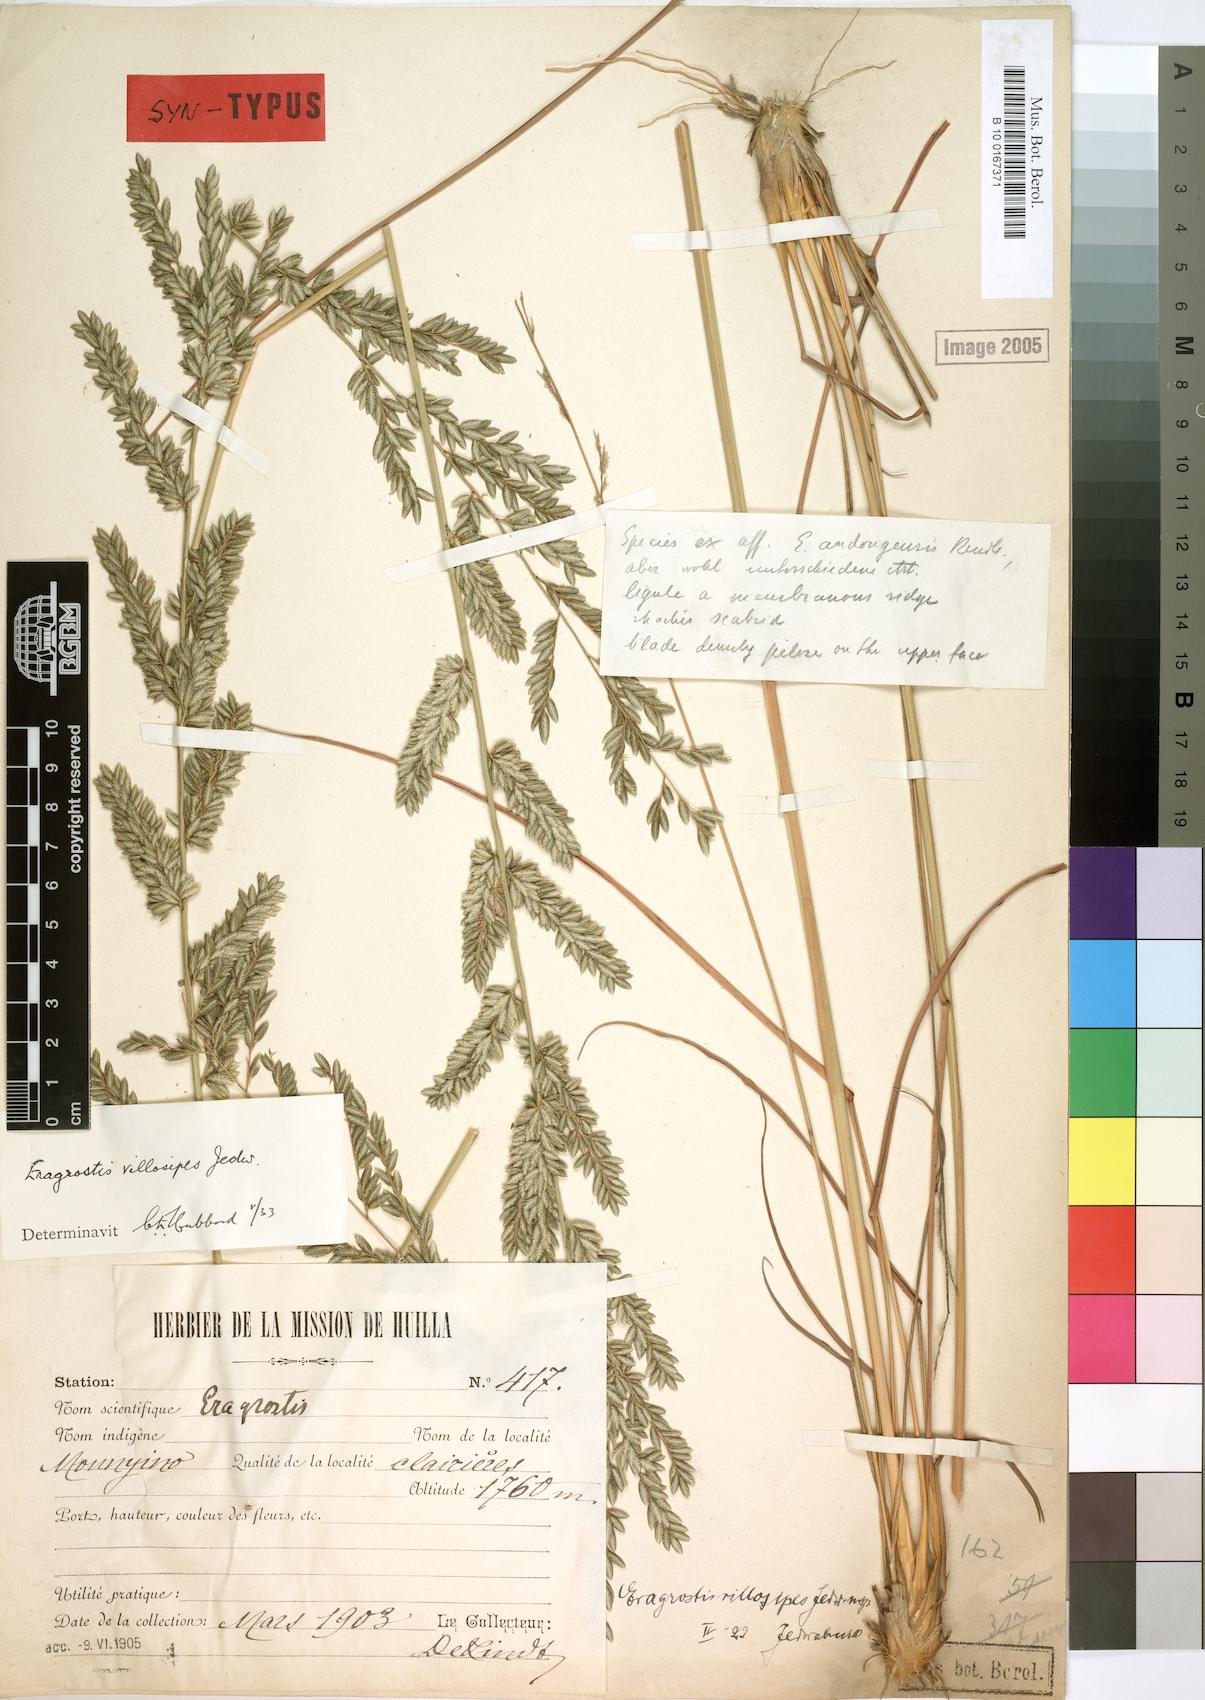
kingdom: Plantae
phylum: Tracheophyta
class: Liliopsida
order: Poales
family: Poaceae
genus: Eragrostis
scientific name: Eragrostis sclerantha
